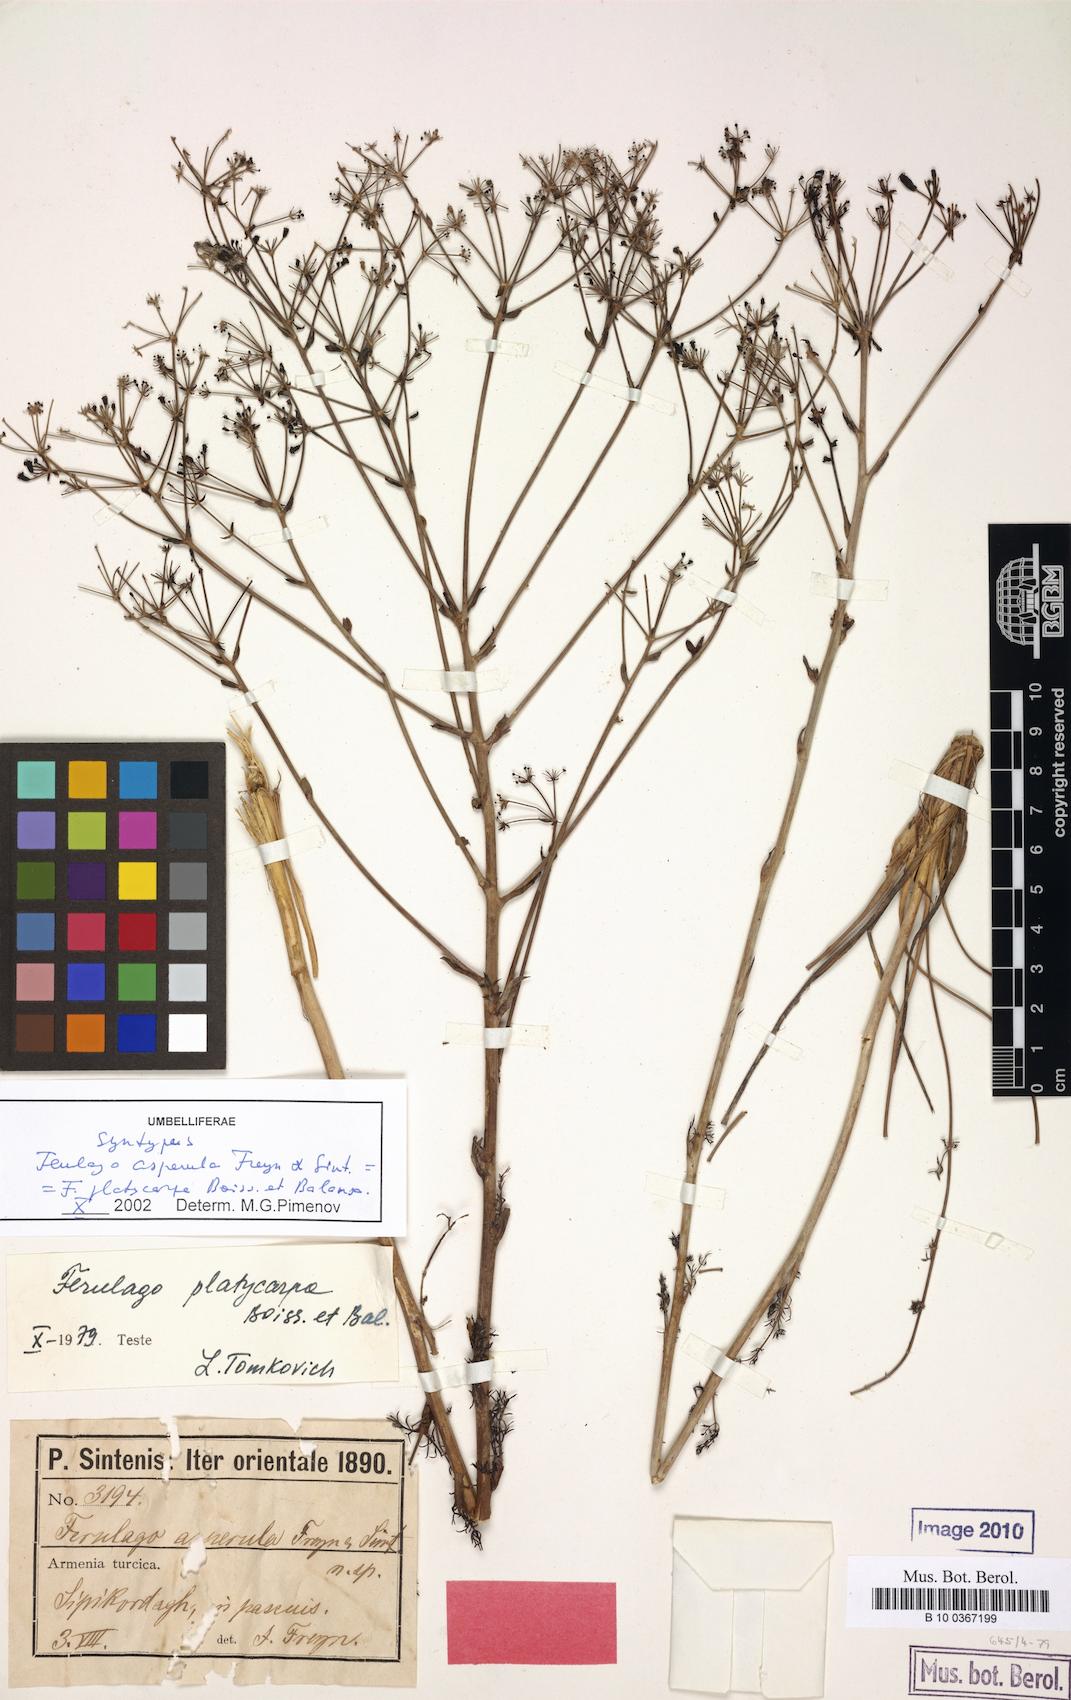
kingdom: Plantae
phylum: Tracheophyta
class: Magnoliopsida
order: Apiales
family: Apiaceae
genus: Ferulago
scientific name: Ferulago platycarpa
